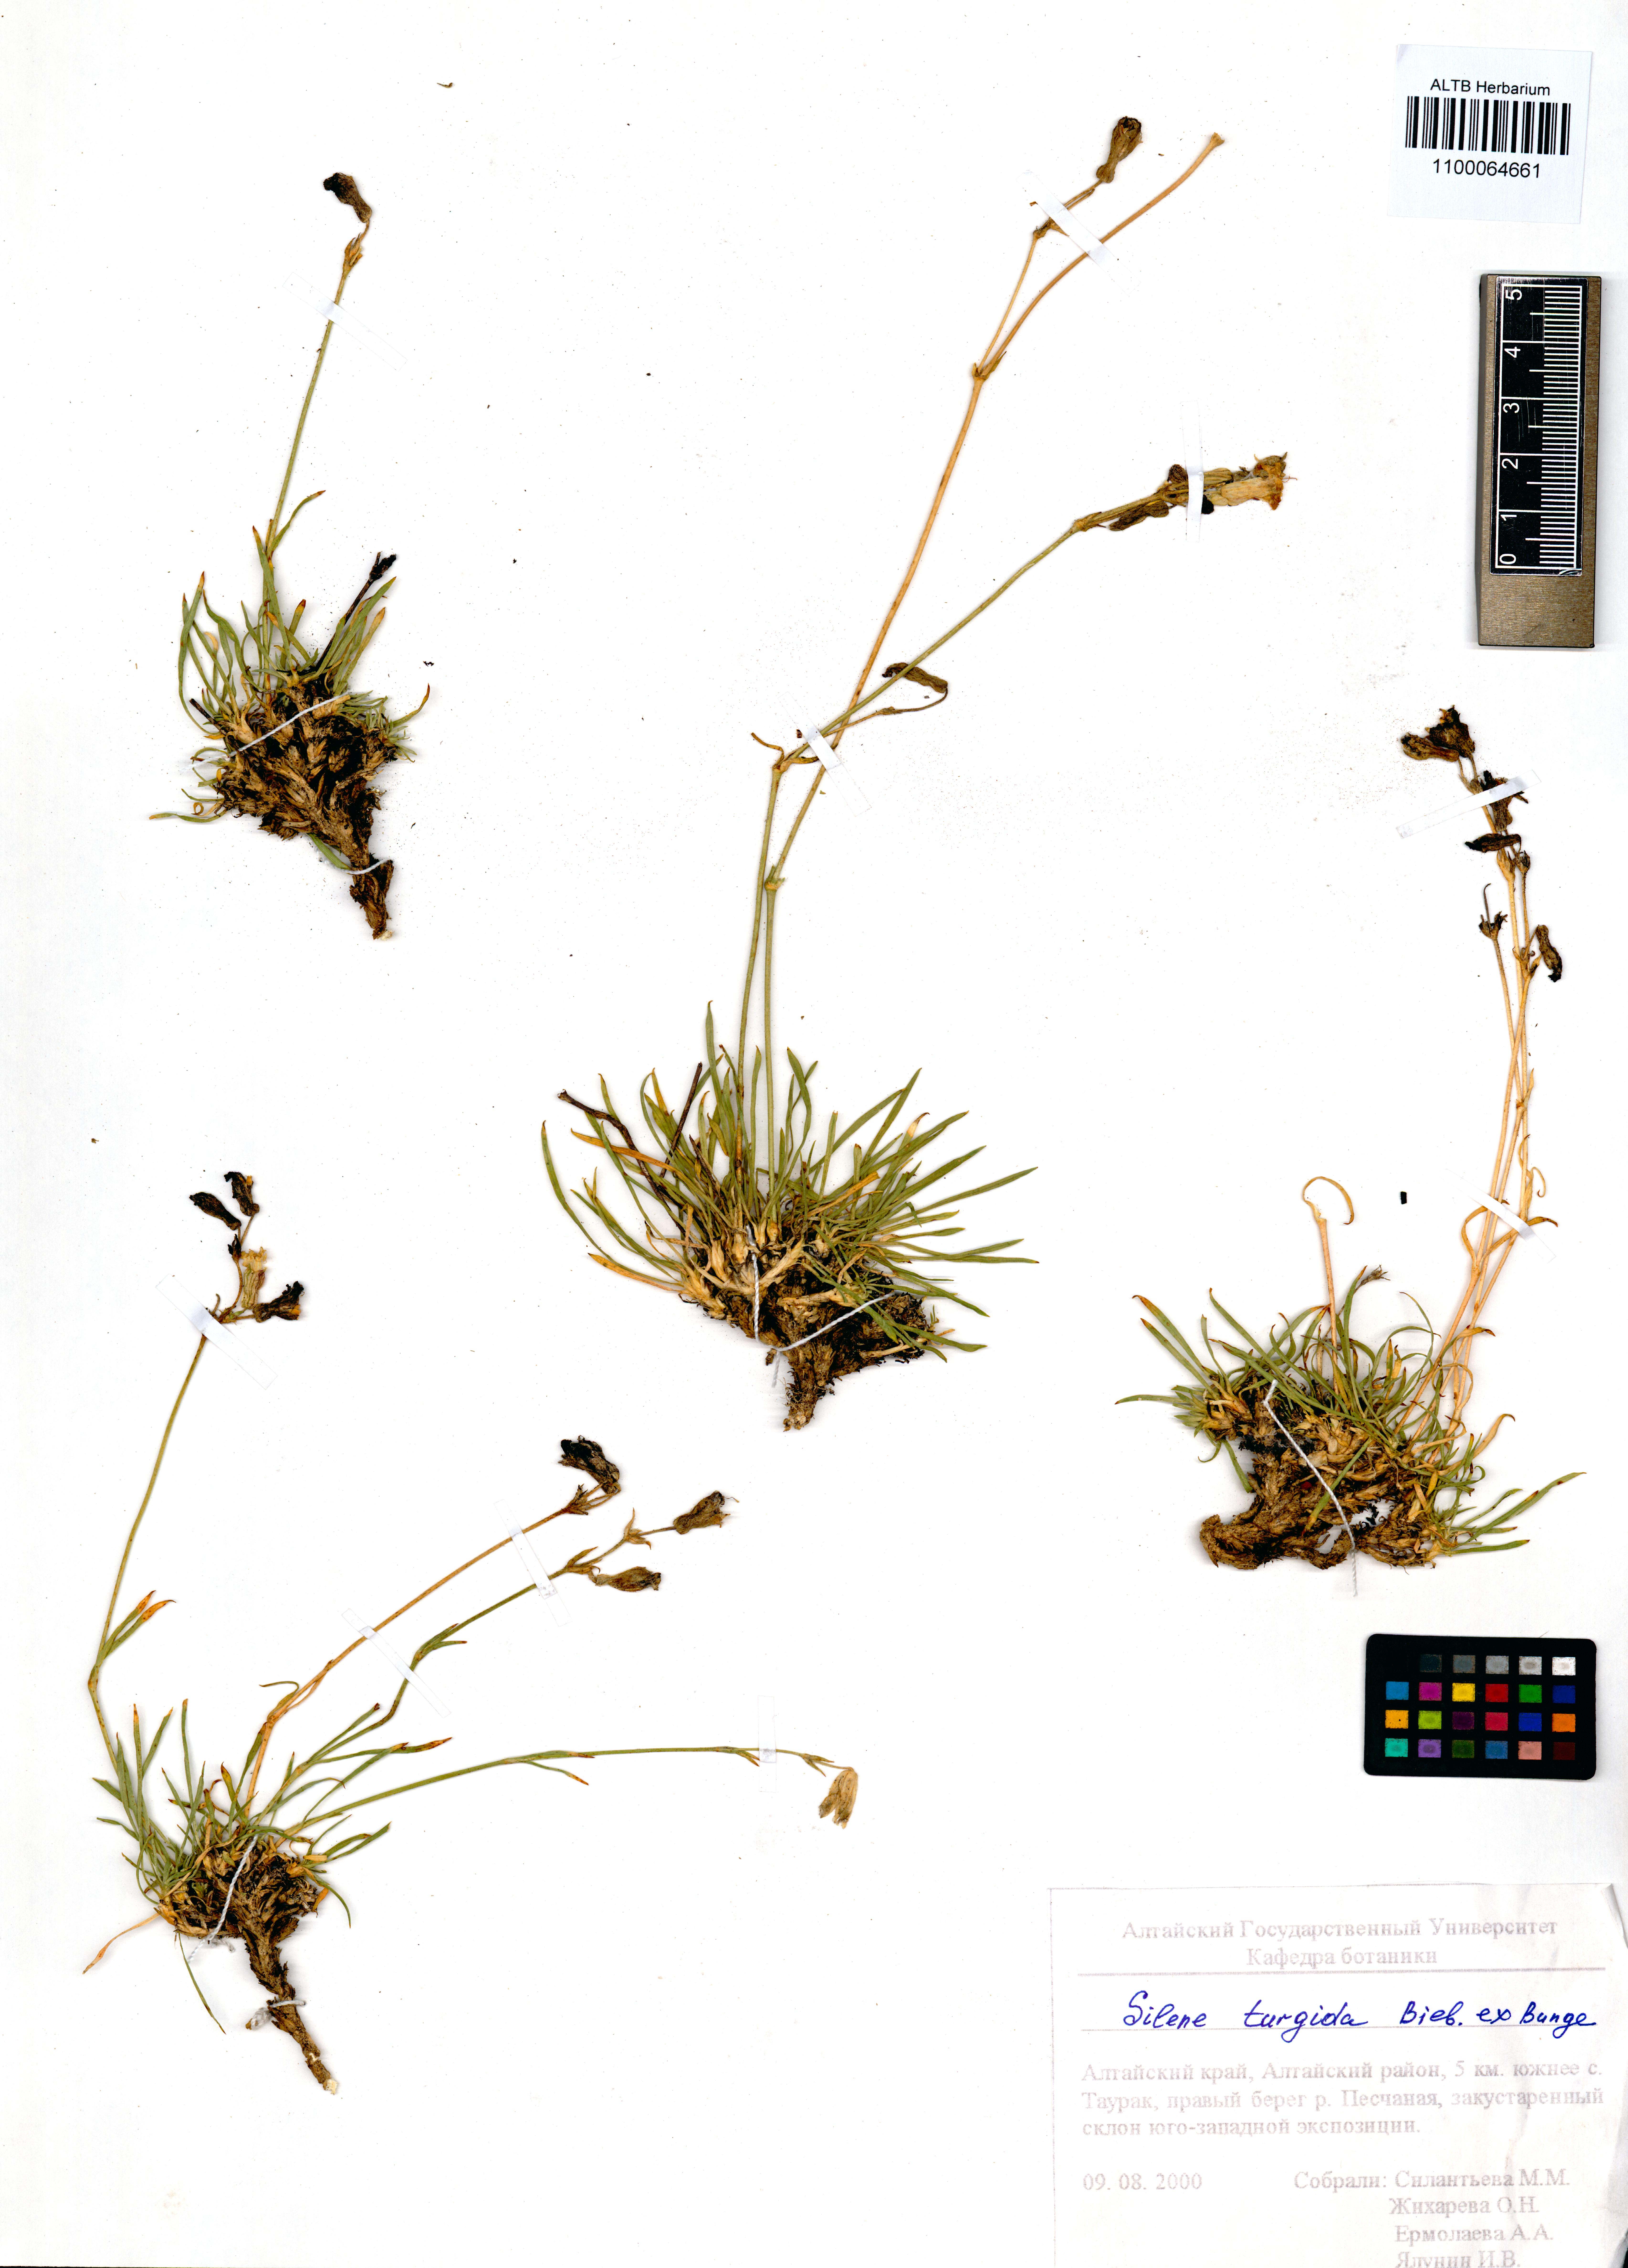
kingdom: Plantae
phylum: Tracheophyta
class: Magnoliopsida
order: Caryophyllales
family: Caryophyllaceae
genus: Silene
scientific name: Silene turgida
